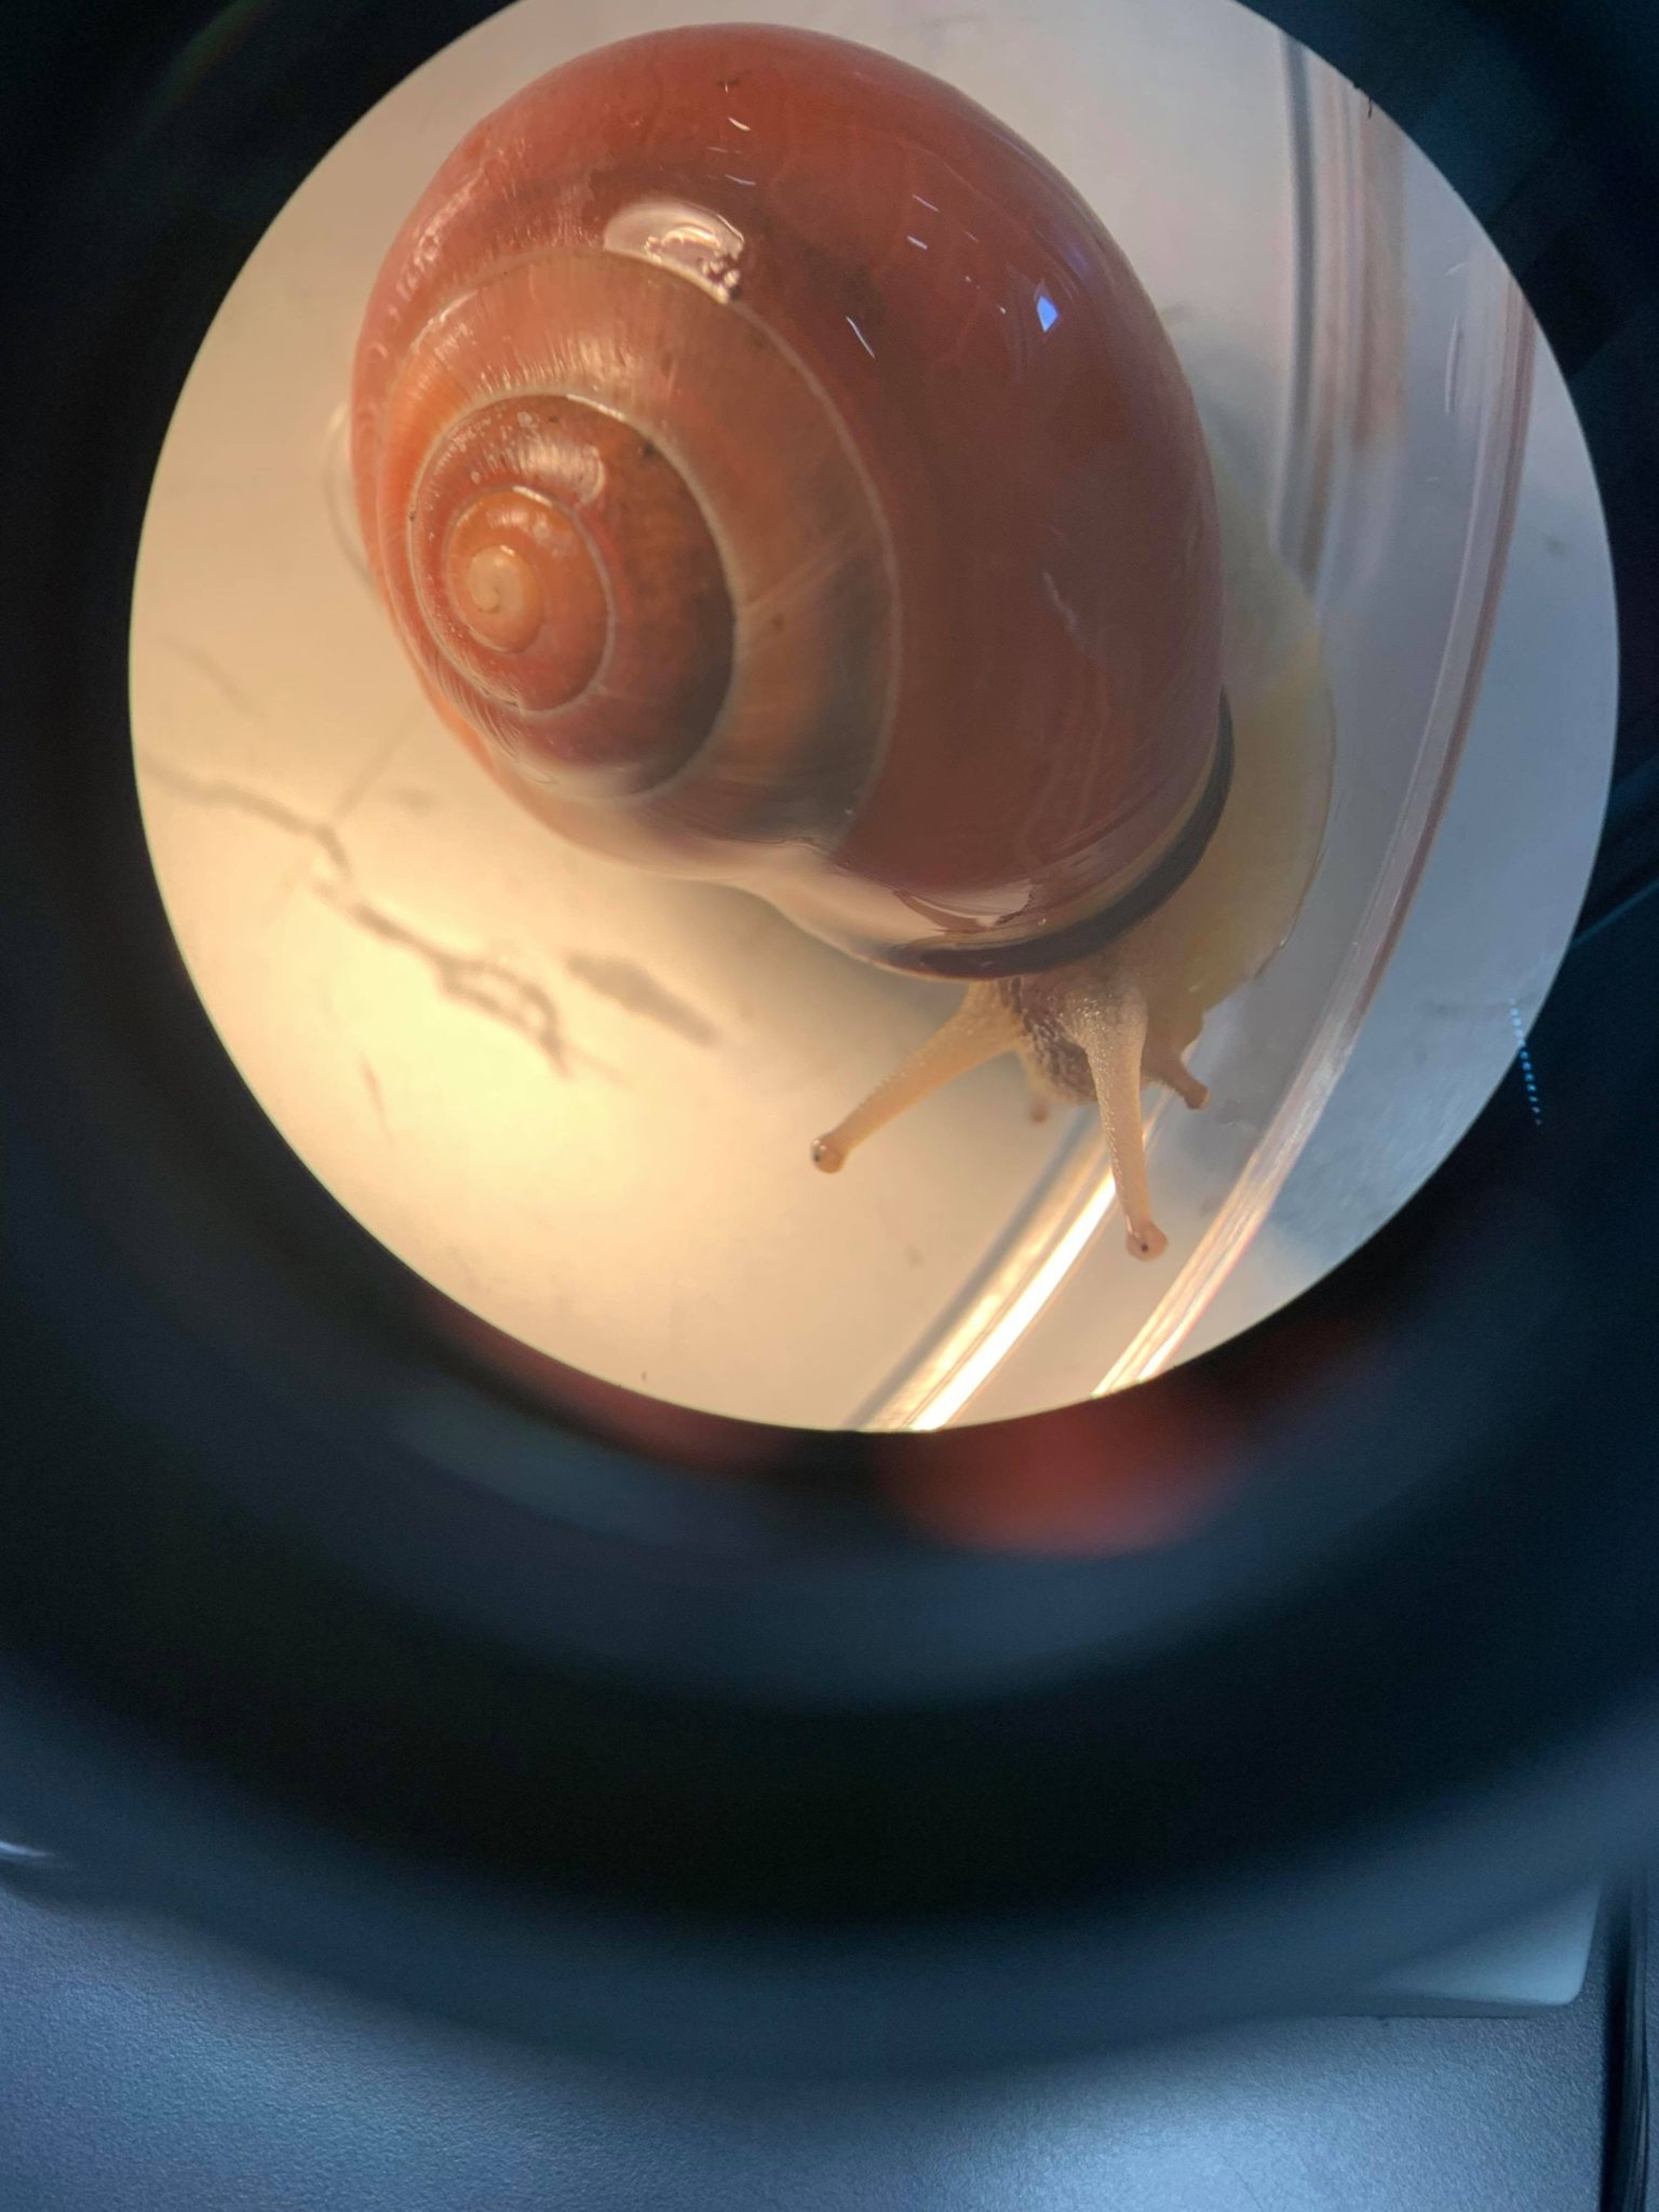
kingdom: Animalia
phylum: Mollusca
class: Gastropoda
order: Stylommatophora
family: Helicidae
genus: Cepaea
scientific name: Cepaea nemoralis
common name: Lundsnegl
